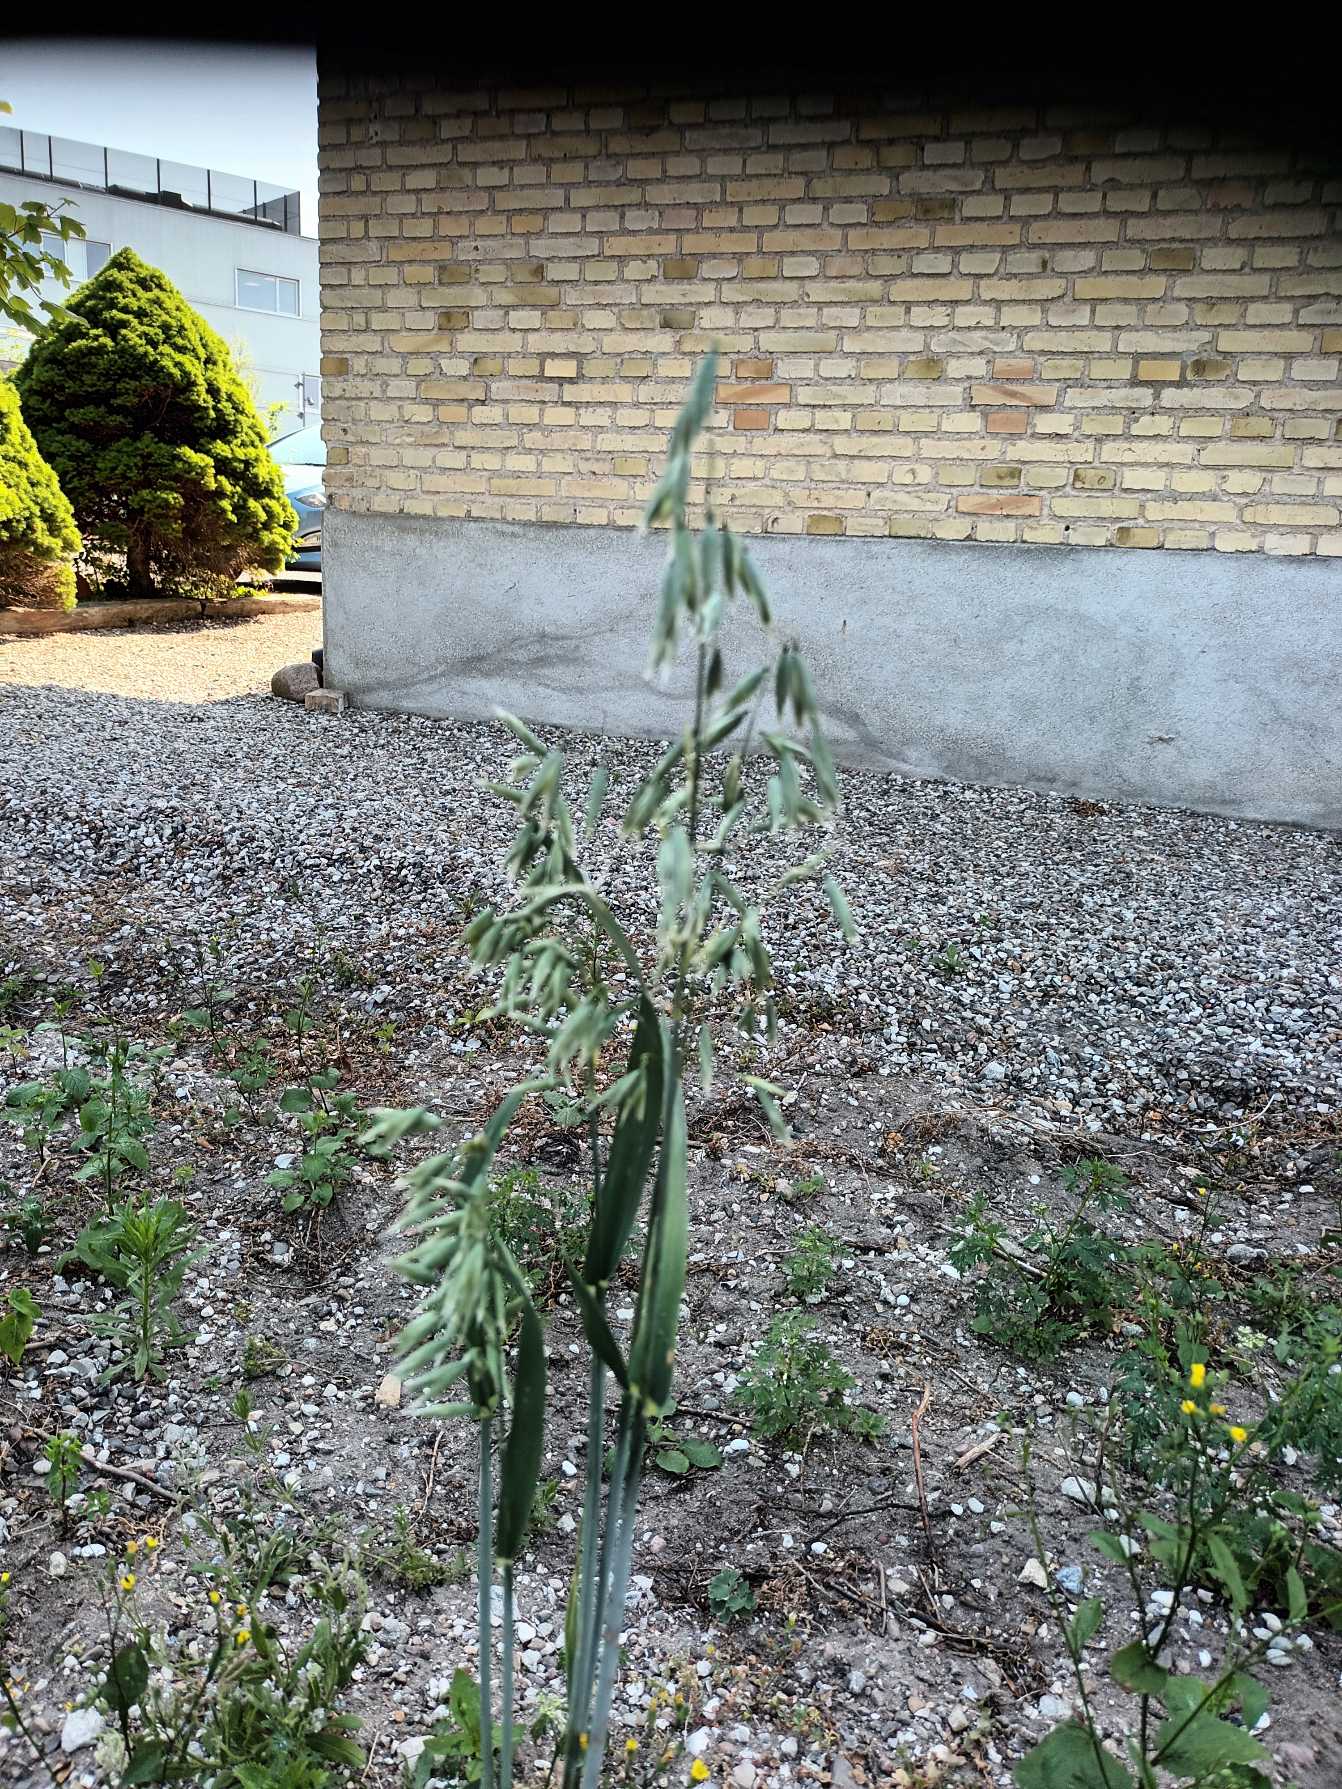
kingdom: Plantae
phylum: Tracheophyta
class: Liliopsida
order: Poales
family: Poaceae
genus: Avena
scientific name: Avena sativa
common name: Almindelig havre
